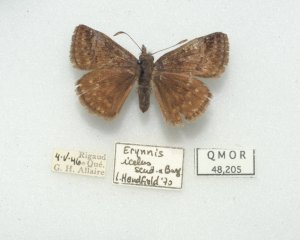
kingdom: Animalia
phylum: Arthropoda
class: Insecta
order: Lepidoptera
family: Hesperiidae
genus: Erynnis
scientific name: Erynnis icelus
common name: Dreamy Duskywing
